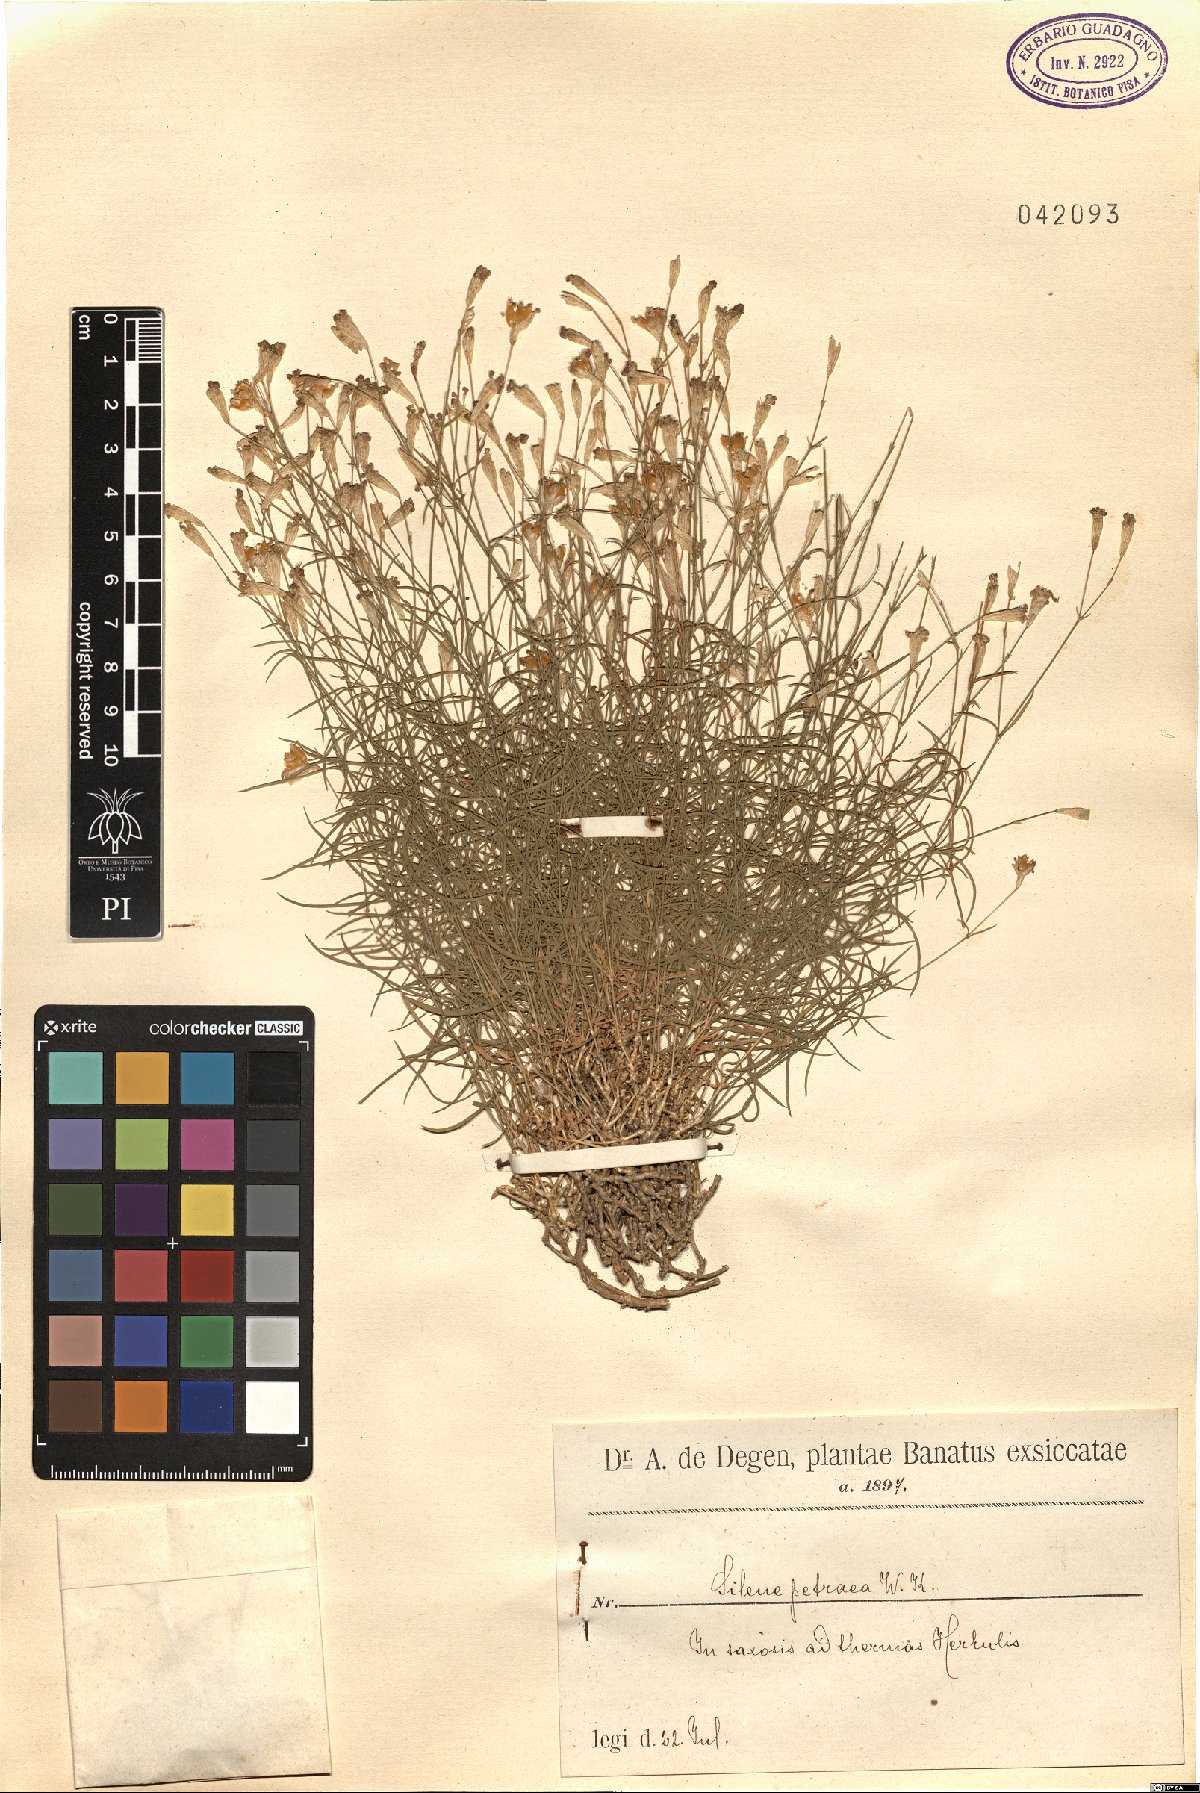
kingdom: Plantae
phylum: Tracheophyta
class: Magnoliopsida
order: Caryophyllales
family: Caryophyllaceae
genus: Silene
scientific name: Silene saxifraga
